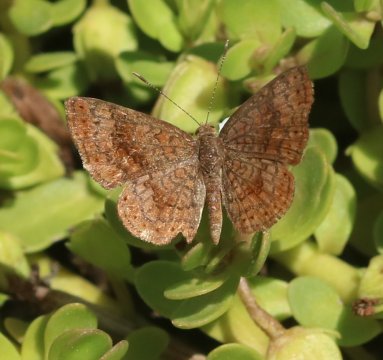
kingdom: Animalia
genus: Calephelis
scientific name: Calephelis
